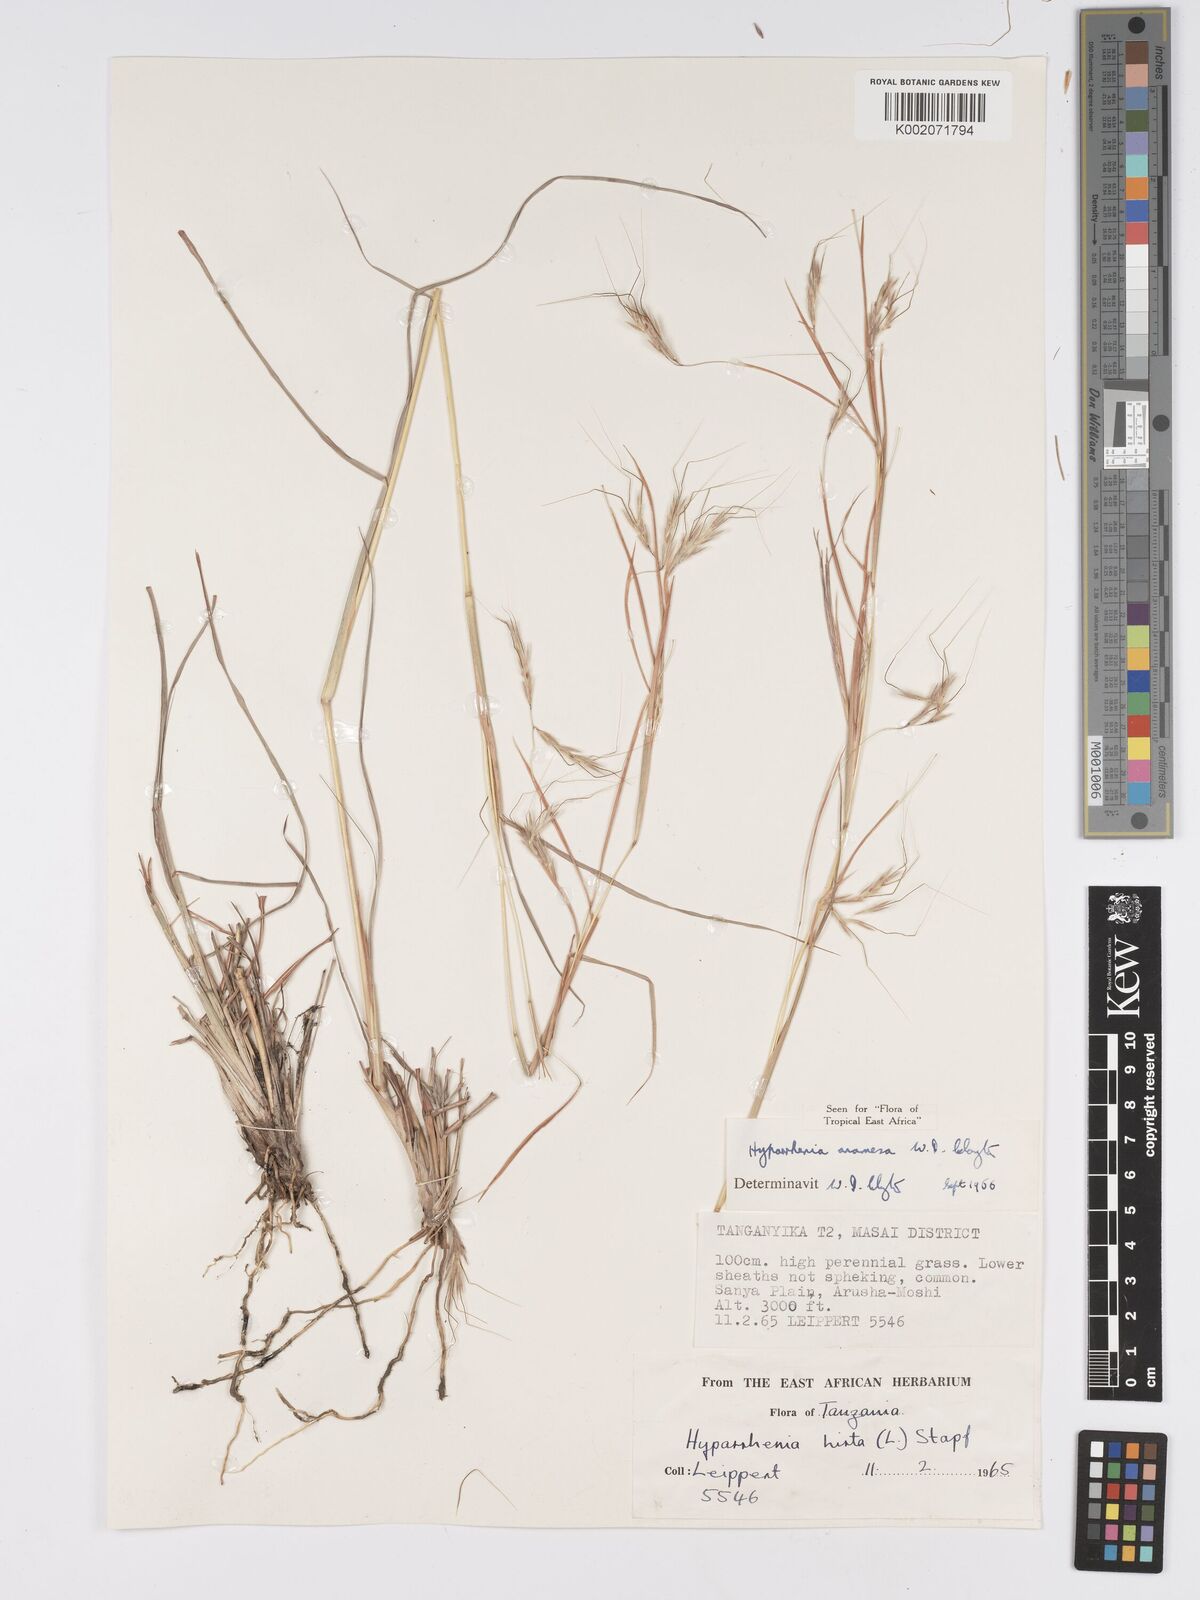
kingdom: Plantae
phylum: Tracheophyta
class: Liliopsida
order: Poales
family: Poaceae
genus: Hyparrhenia
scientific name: Hyparrhenia anamesa
